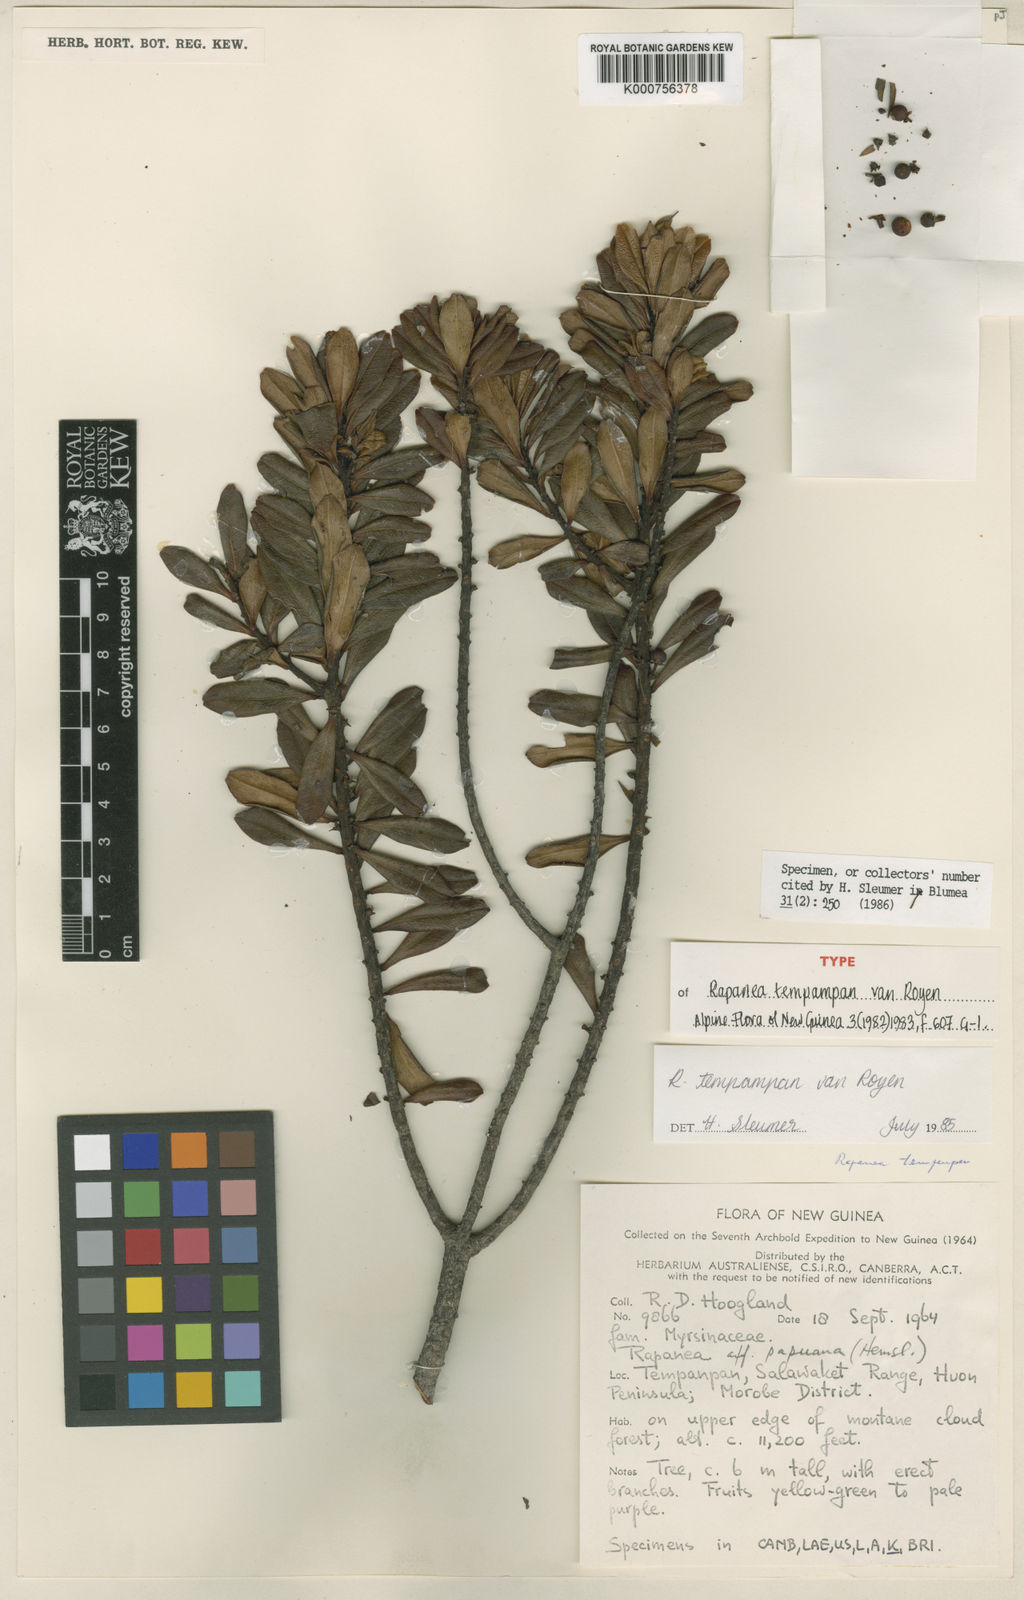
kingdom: Plantae
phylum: Tracheophyta
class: Magnoliopsida
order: Ericales
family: Primulaceae
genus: Myrsine
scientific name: Myrsine tempanpan
